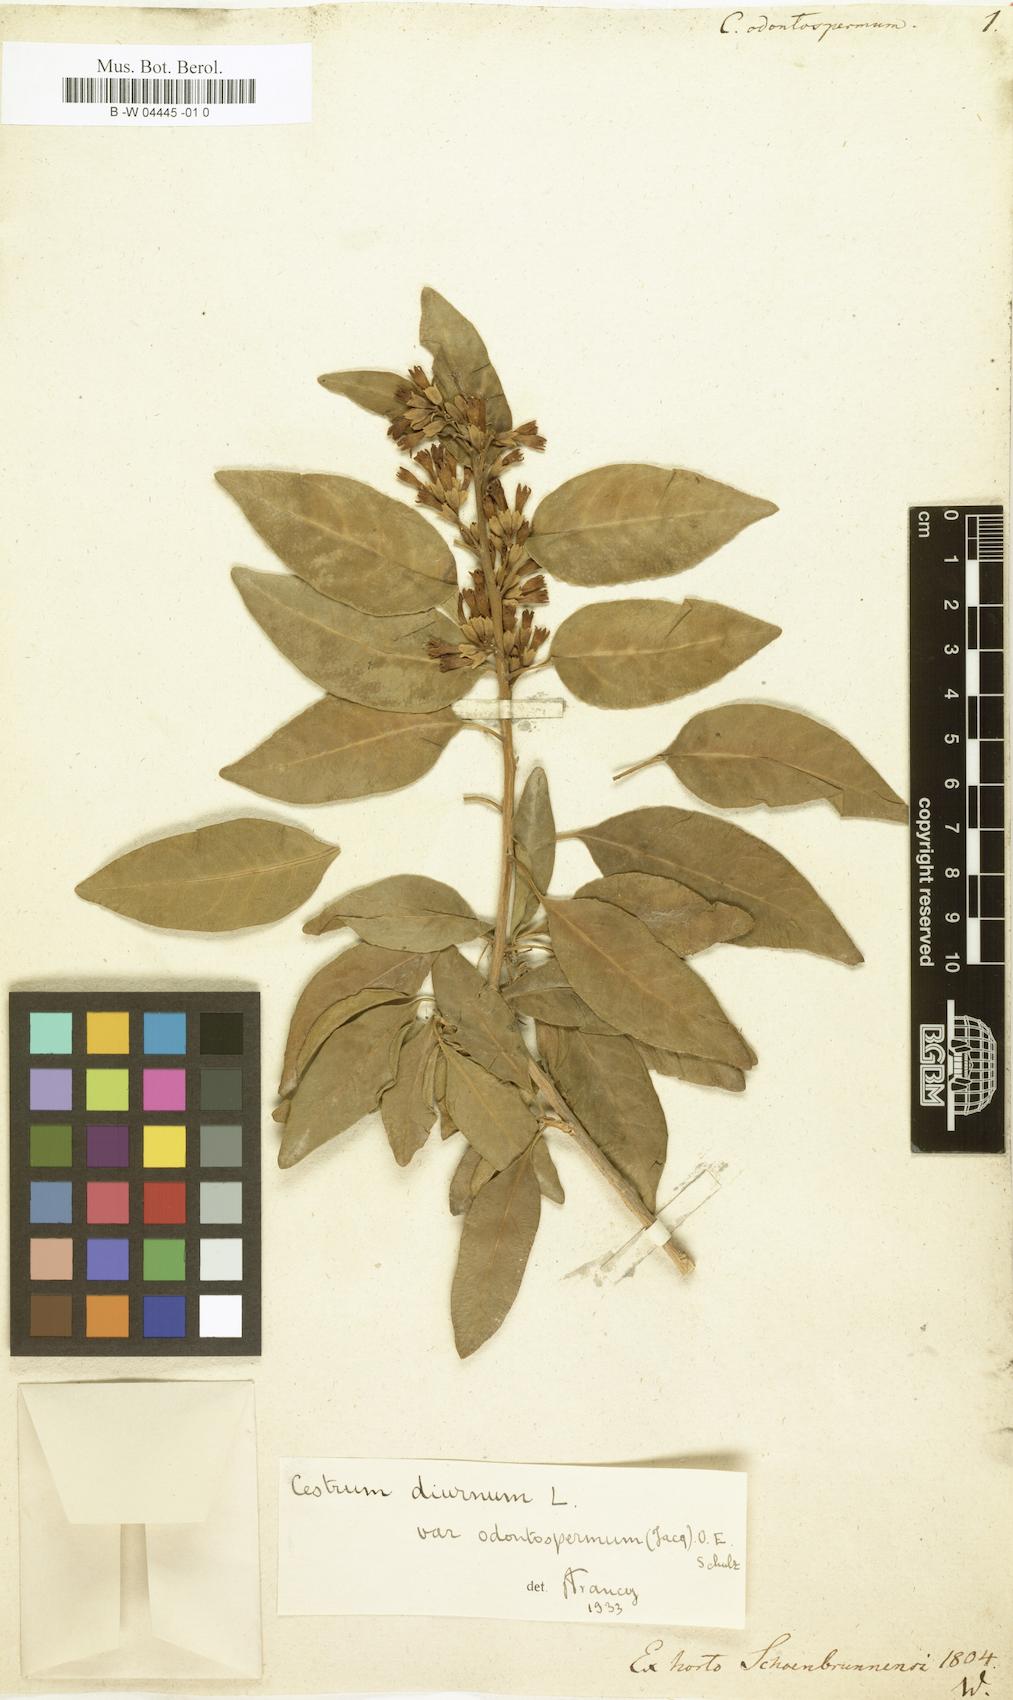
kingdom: Plantae
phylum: Tracheophyta
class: Magnoliopsida
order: Solanales
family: Solanaceae
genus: Cestrum
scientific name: Cestrum diurnum
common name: Day jessamine
